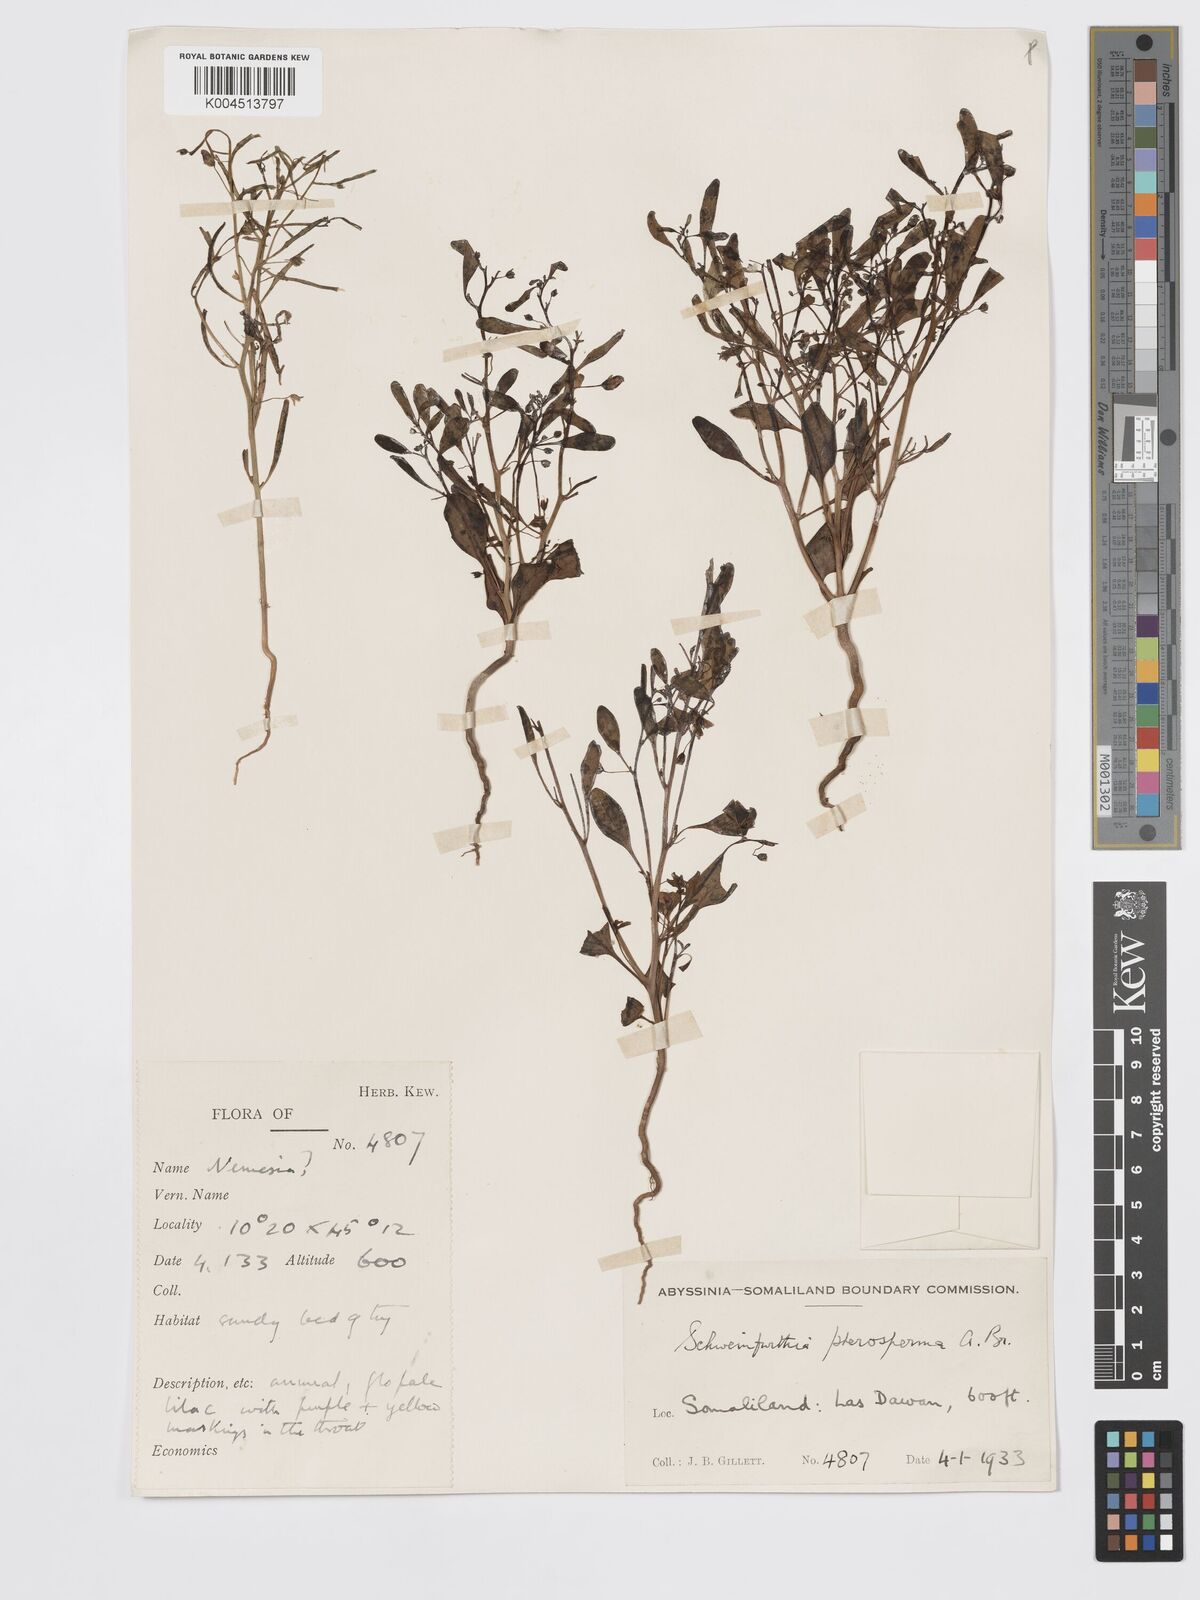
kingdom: Plantae
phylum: Tracheophyta
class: Magnoliopsida
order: Lamiales
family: Plantaginaceae
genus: Schweinfurthia
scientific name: Schweinfurthia pterosperma
